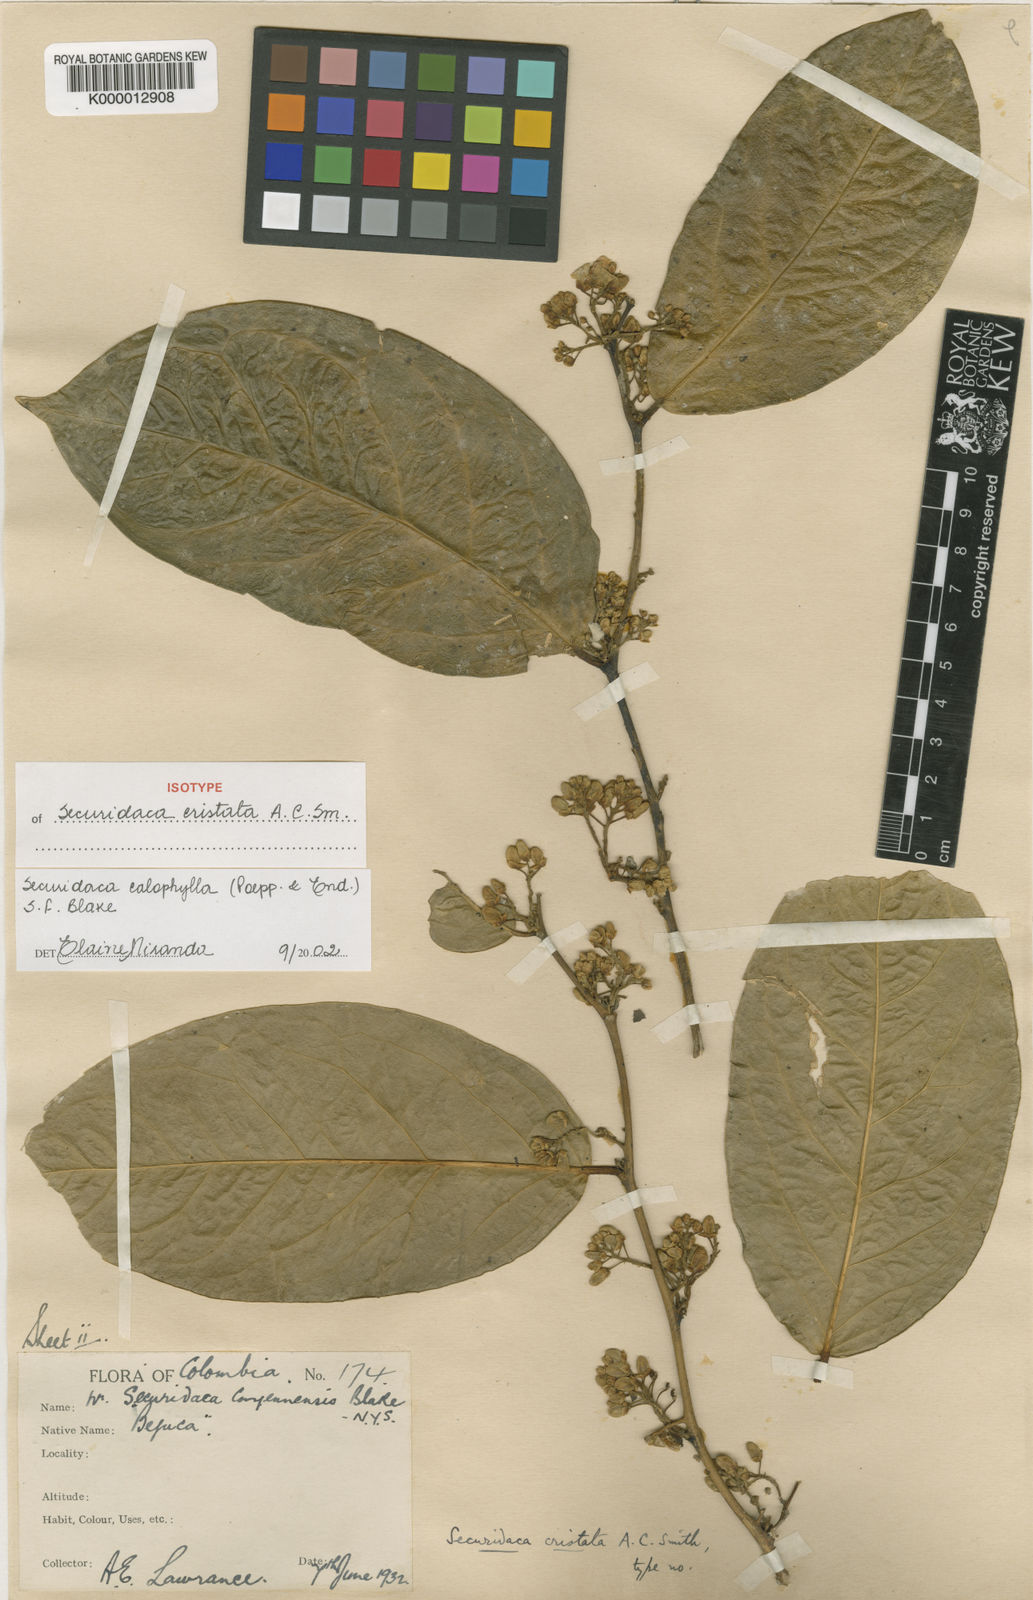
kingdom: Plantae
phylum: Tracheophyta
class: Magnoliopsida
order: Fabales
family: Polygalaceae
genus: Securidaca
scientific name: Securidaca calophylla
